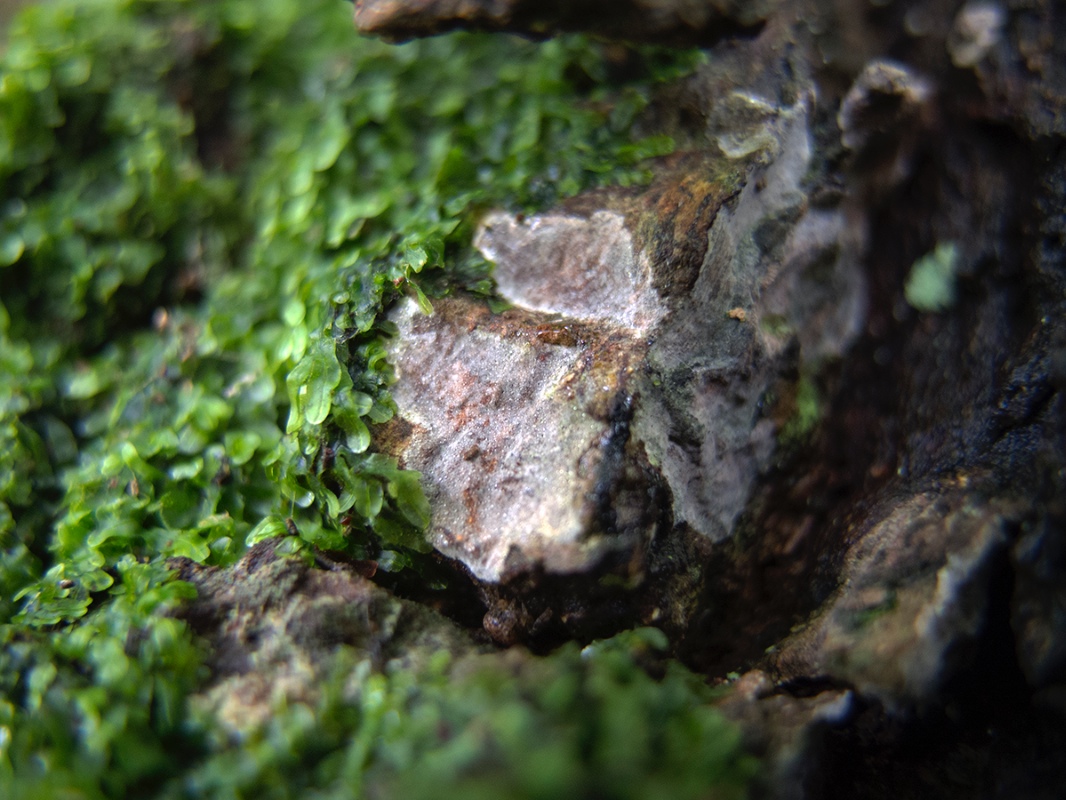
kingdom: Fungi
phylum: Basidiomycota
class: Agaricomycetes
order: Agaricales
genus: Dendrothele
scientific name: Dendrothele commixta
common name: ege-kalkplet
